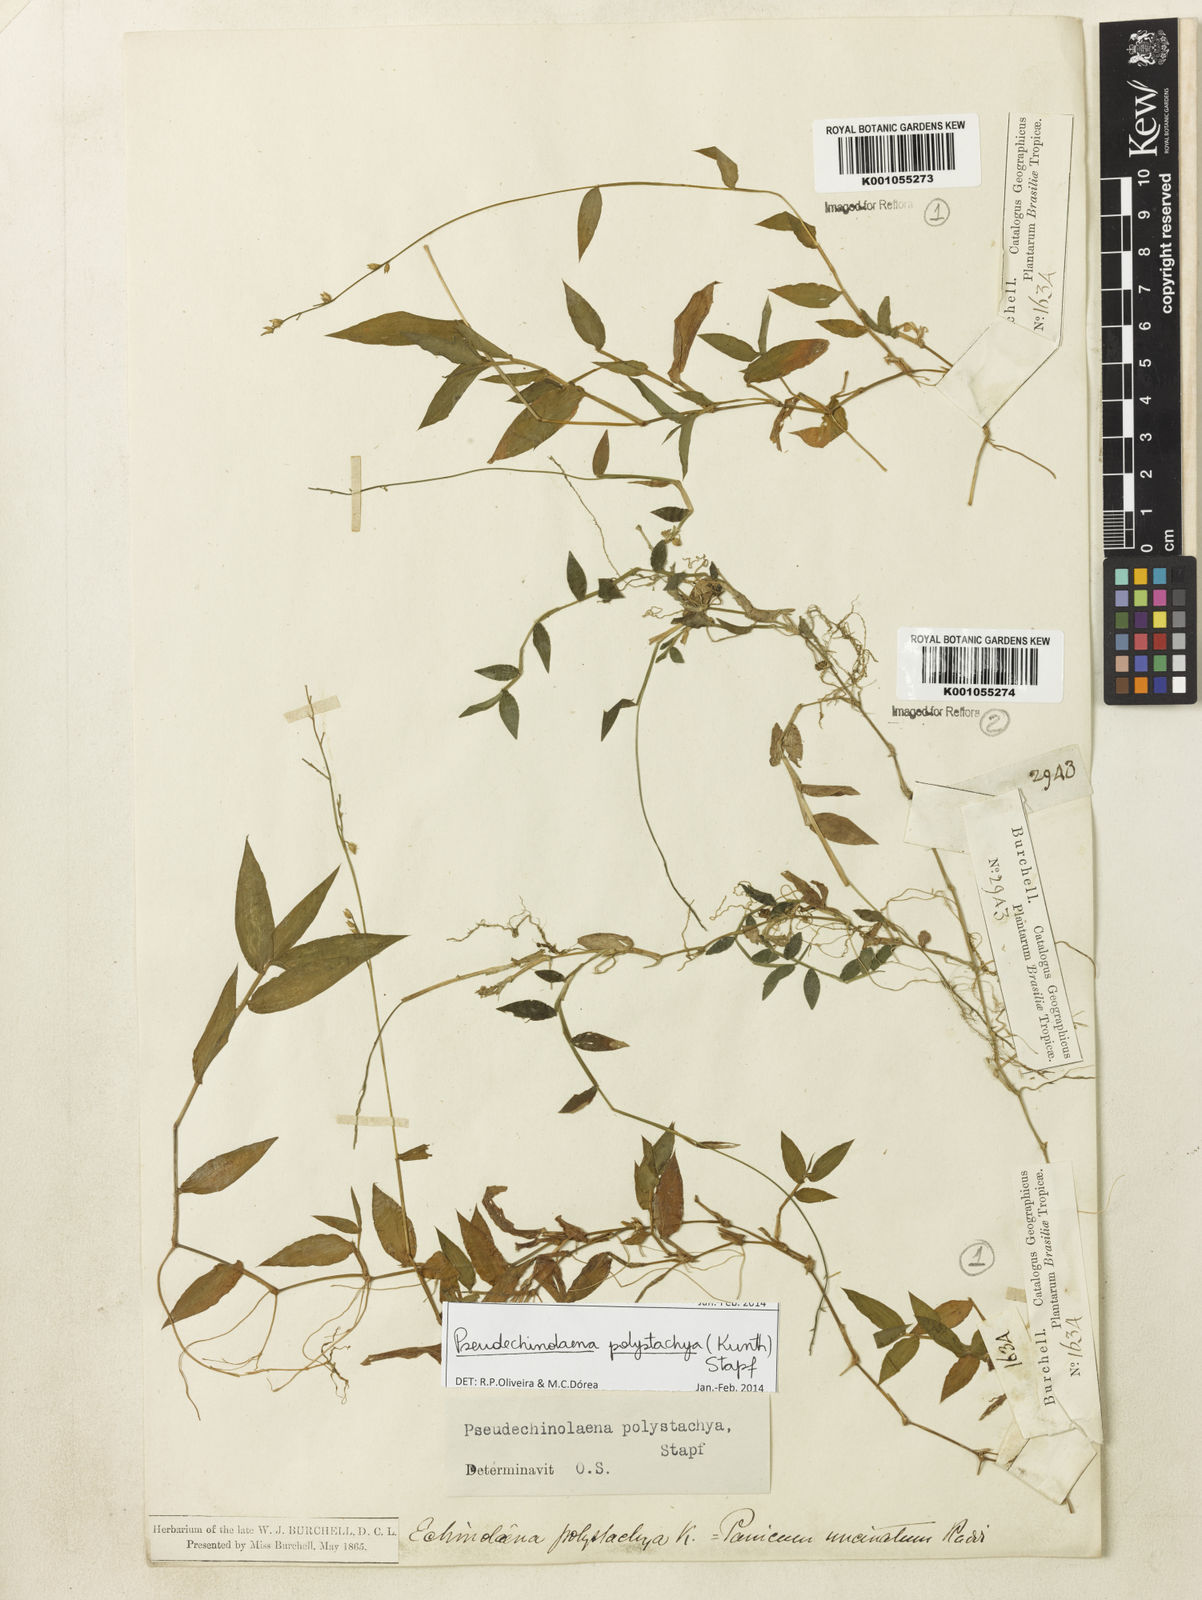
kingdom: Plantae
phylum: Tracheophyta
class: Liliopsida
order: Poales
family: Poaceae
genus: Pseudechinolaena
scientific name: Pseudechinolaena polystachya
